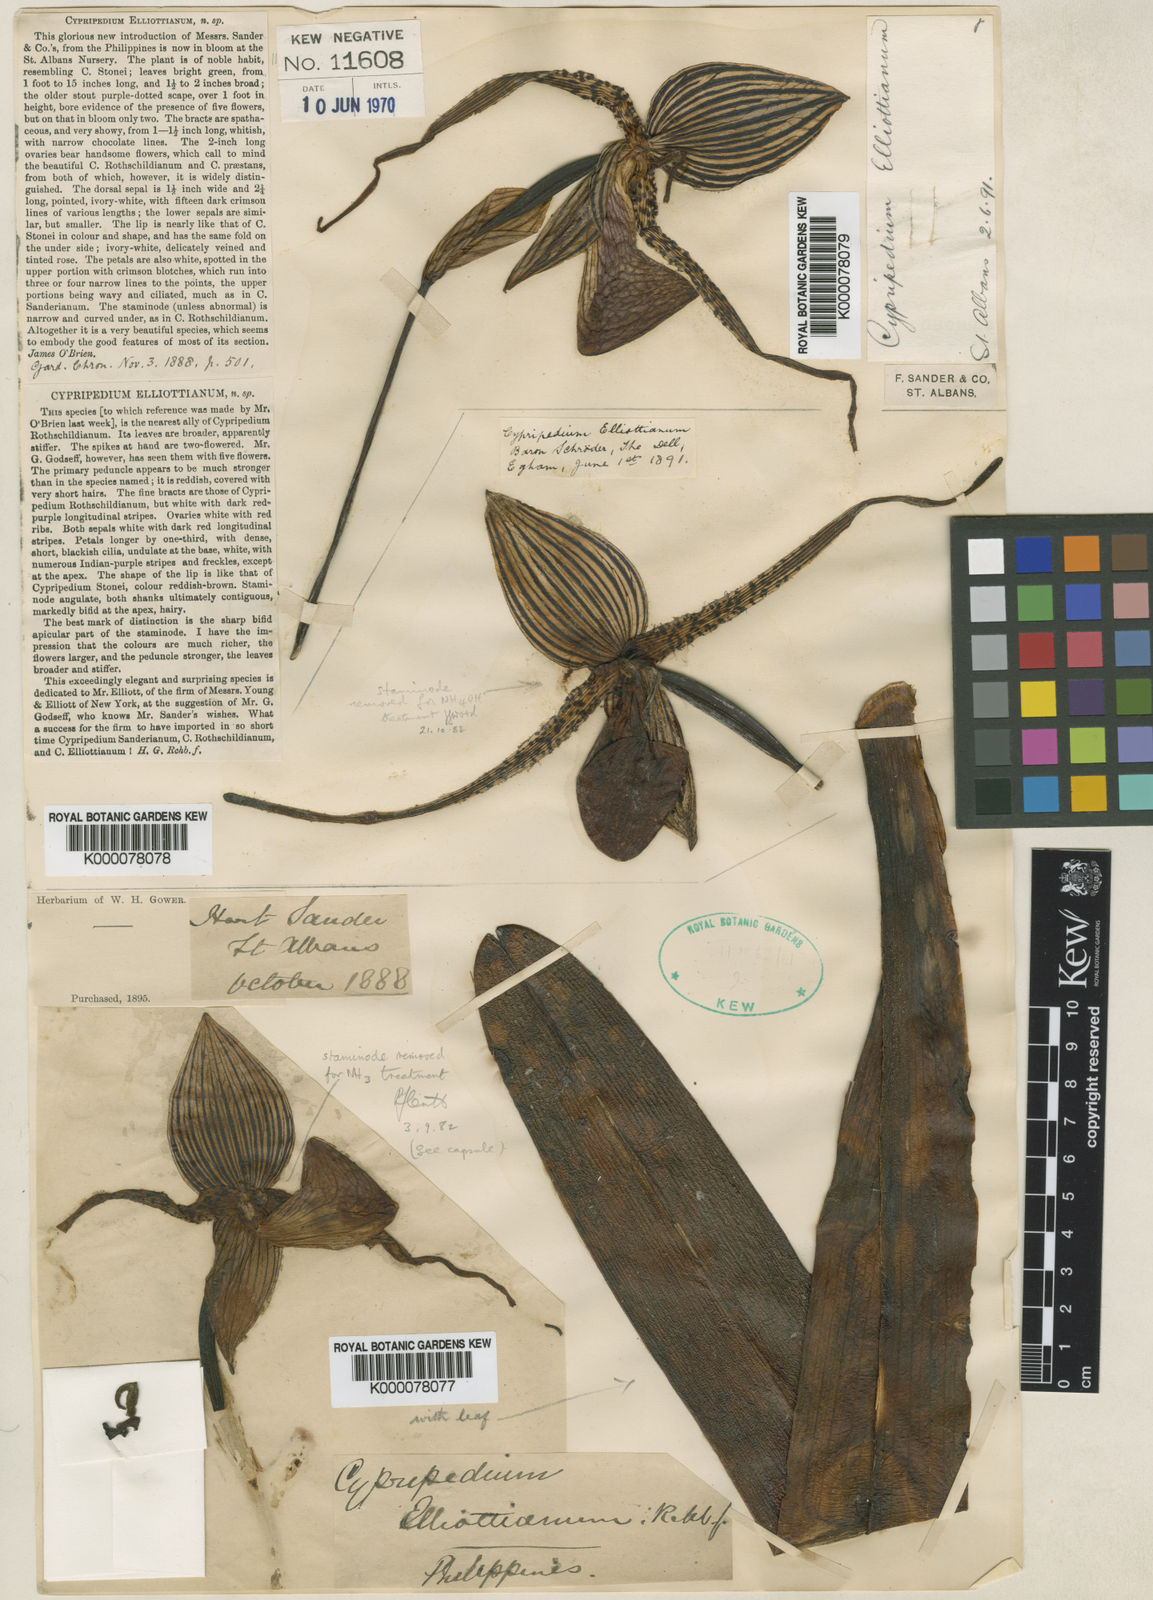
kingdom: Plantae
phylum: Tracheophyta
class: Liliopsida
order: Asparagales
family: Orchidaceae
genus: Paphiopedilum
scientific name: Paphiopedilum rothschildianum
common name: Rothschild's paphiopedilum
